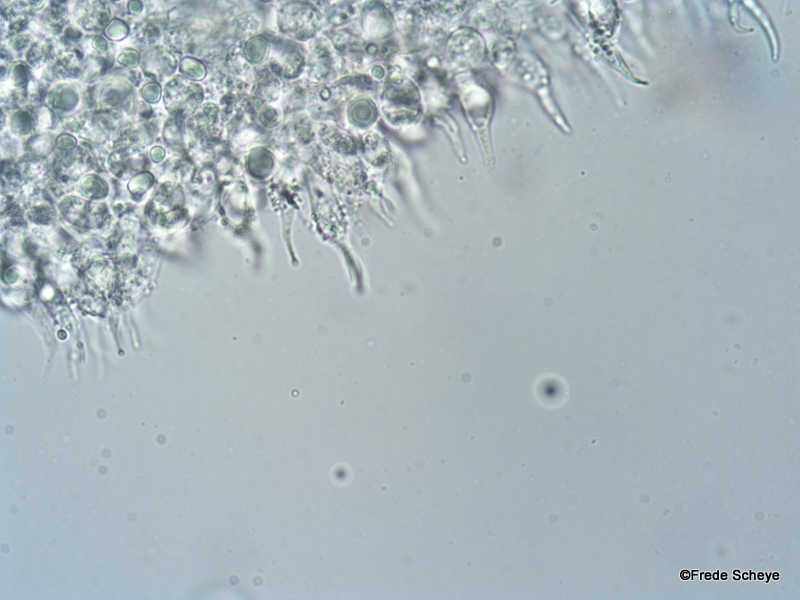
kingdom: Fungi
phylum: Basidiomycota
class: Agaricomycetes
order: Agaricales
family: Mycenaceae
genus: Mycena
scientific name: Mycena tenerrima
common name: pudret huesvamp
